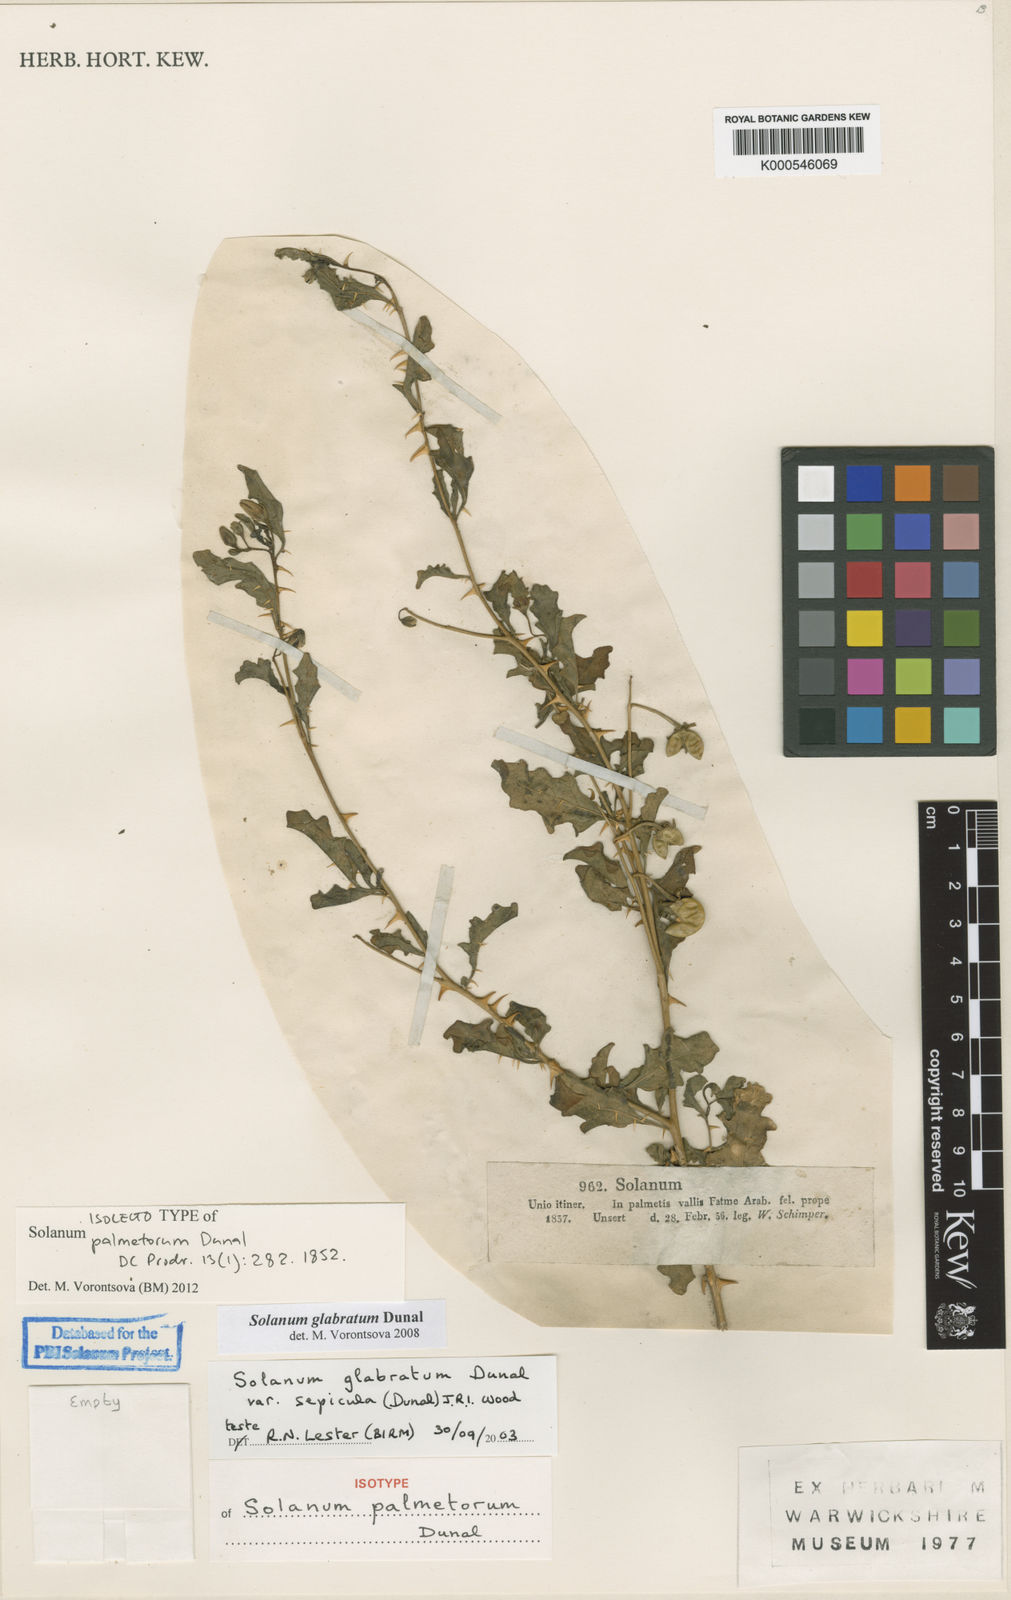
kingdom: Plantae
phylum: Tracheophyta
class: Magnoliopsida
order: Solanales
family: Solanaceae
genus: Solanum
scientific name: Solanum glabratum
